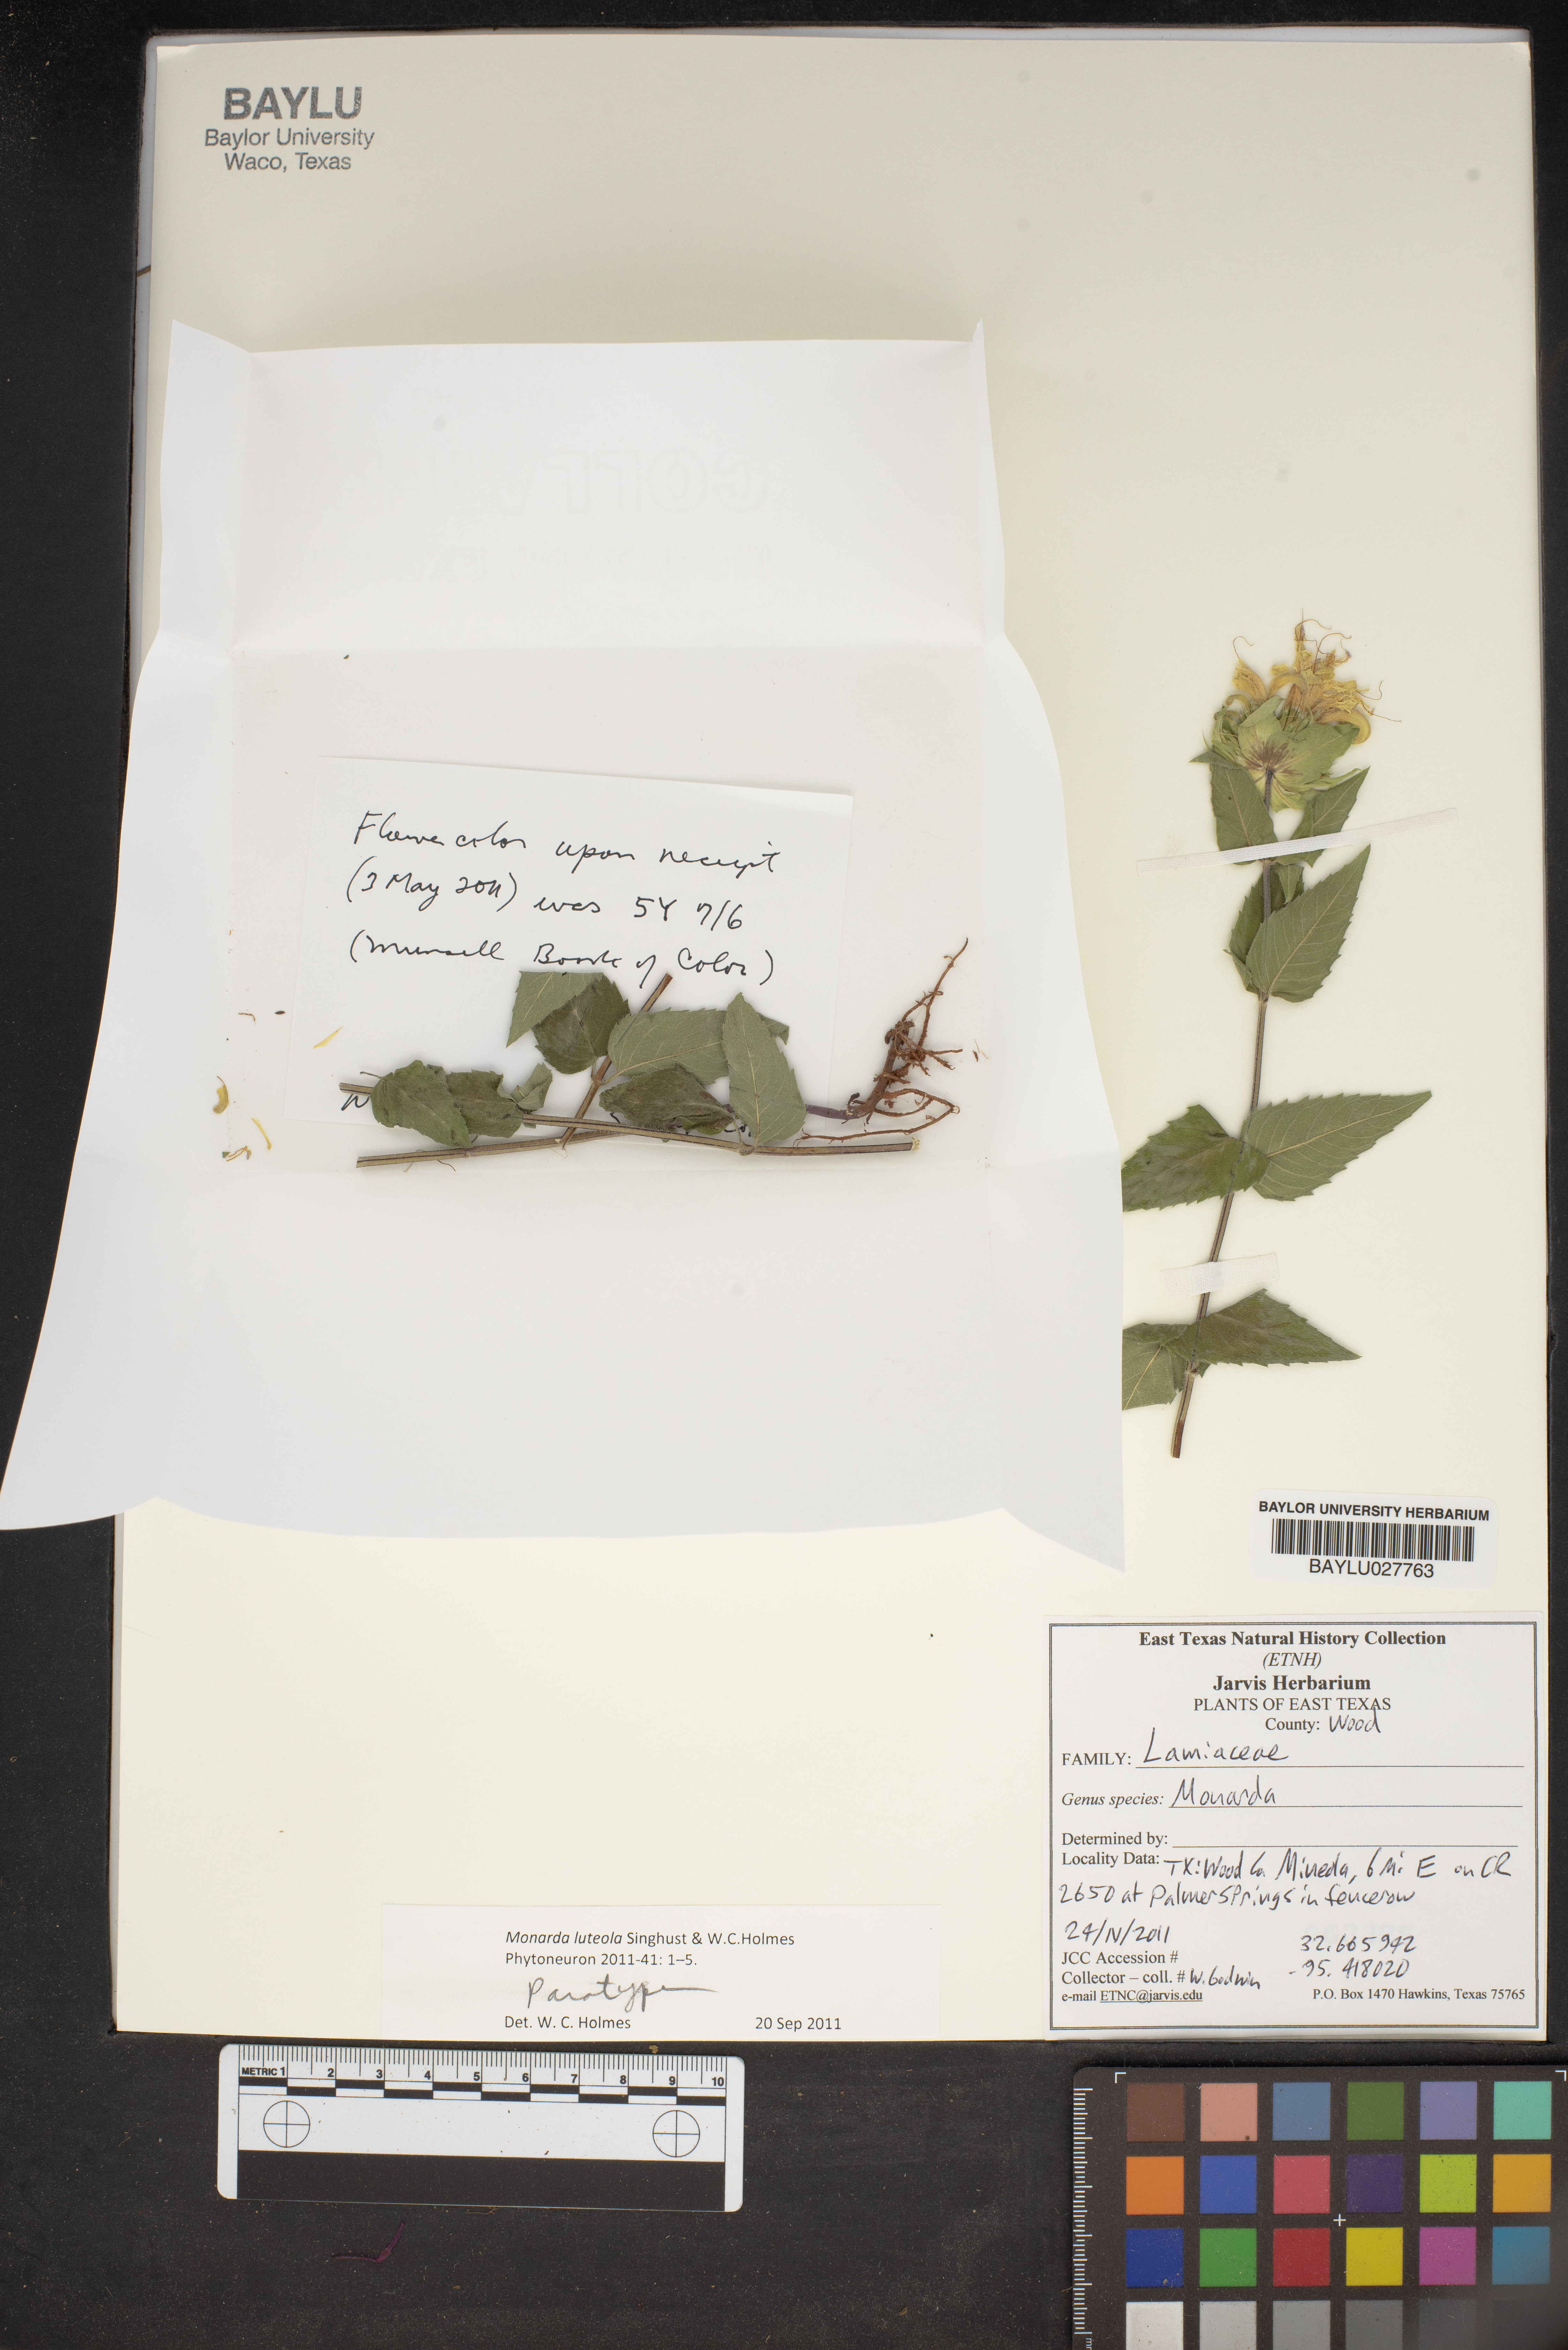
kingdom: Plantae
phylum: Tracheophyta
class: Magnoliopsida
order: Lamiales
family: Lamiaceae
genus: Monarda
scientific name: Monarda
